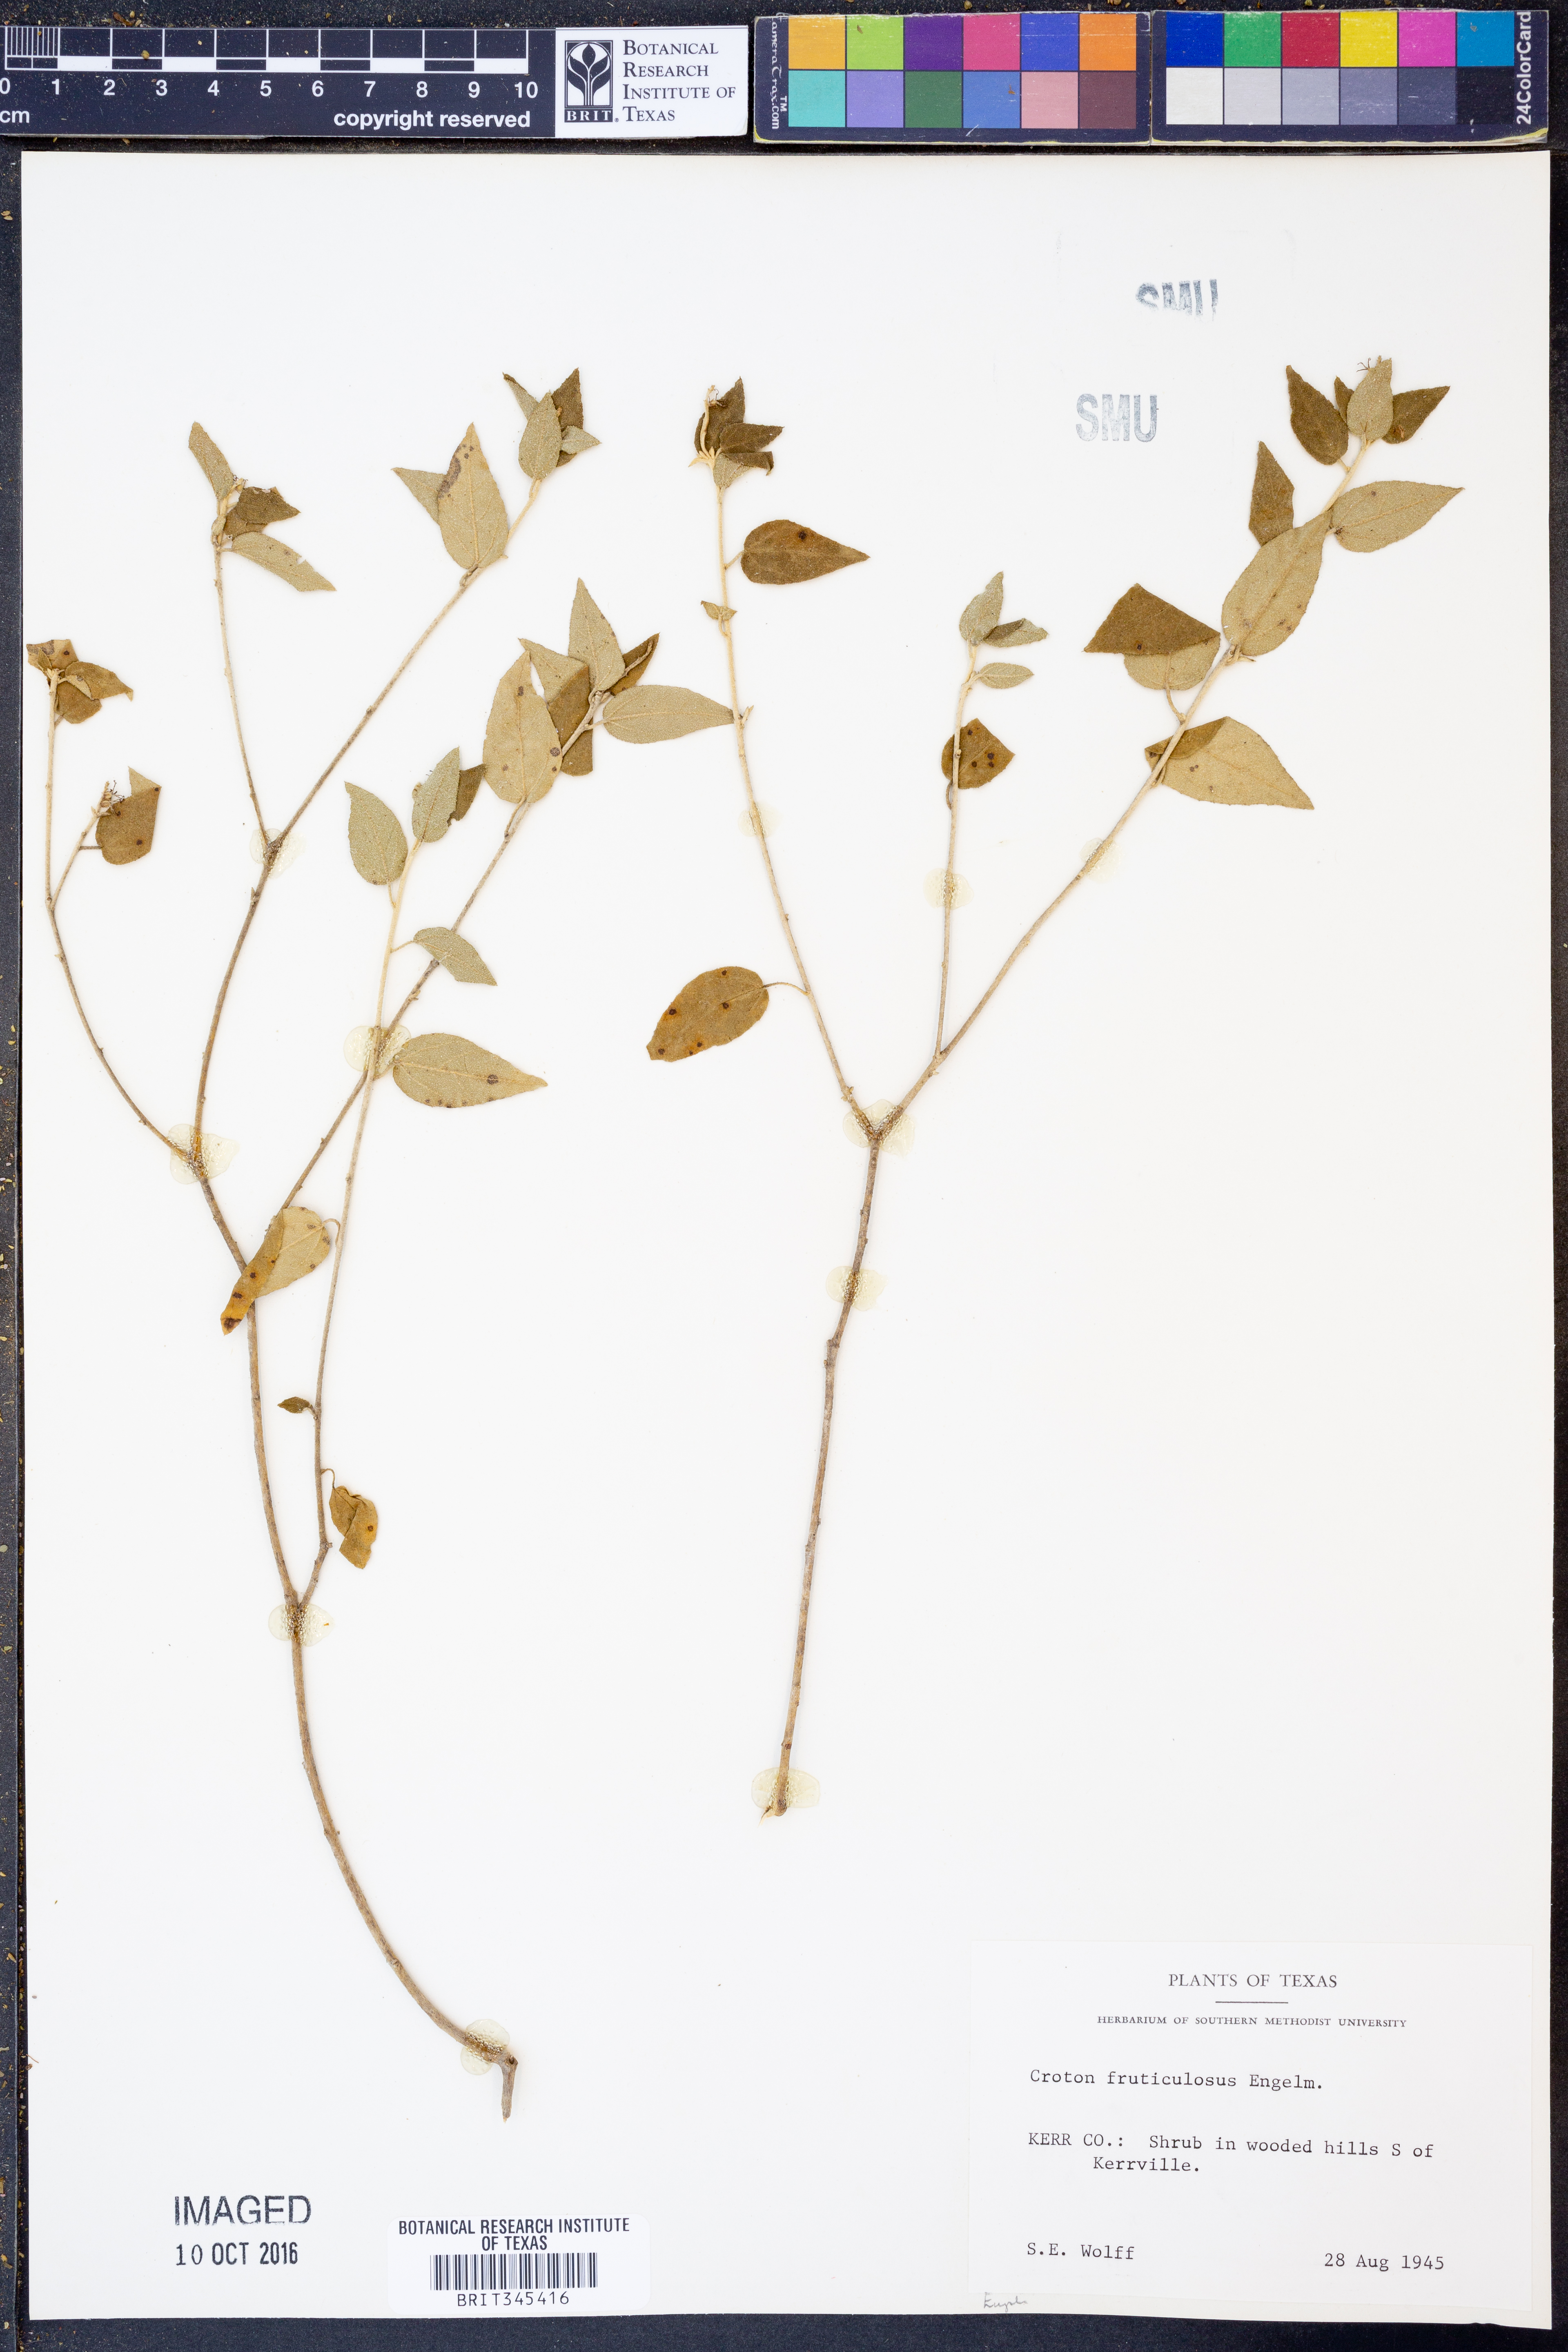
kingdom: Plantae
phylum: Tracheophyta
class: Magnoliopsida
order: Malpighiales
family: Euphorbiaceae
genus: Croton
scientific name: Croton fruticulosus
